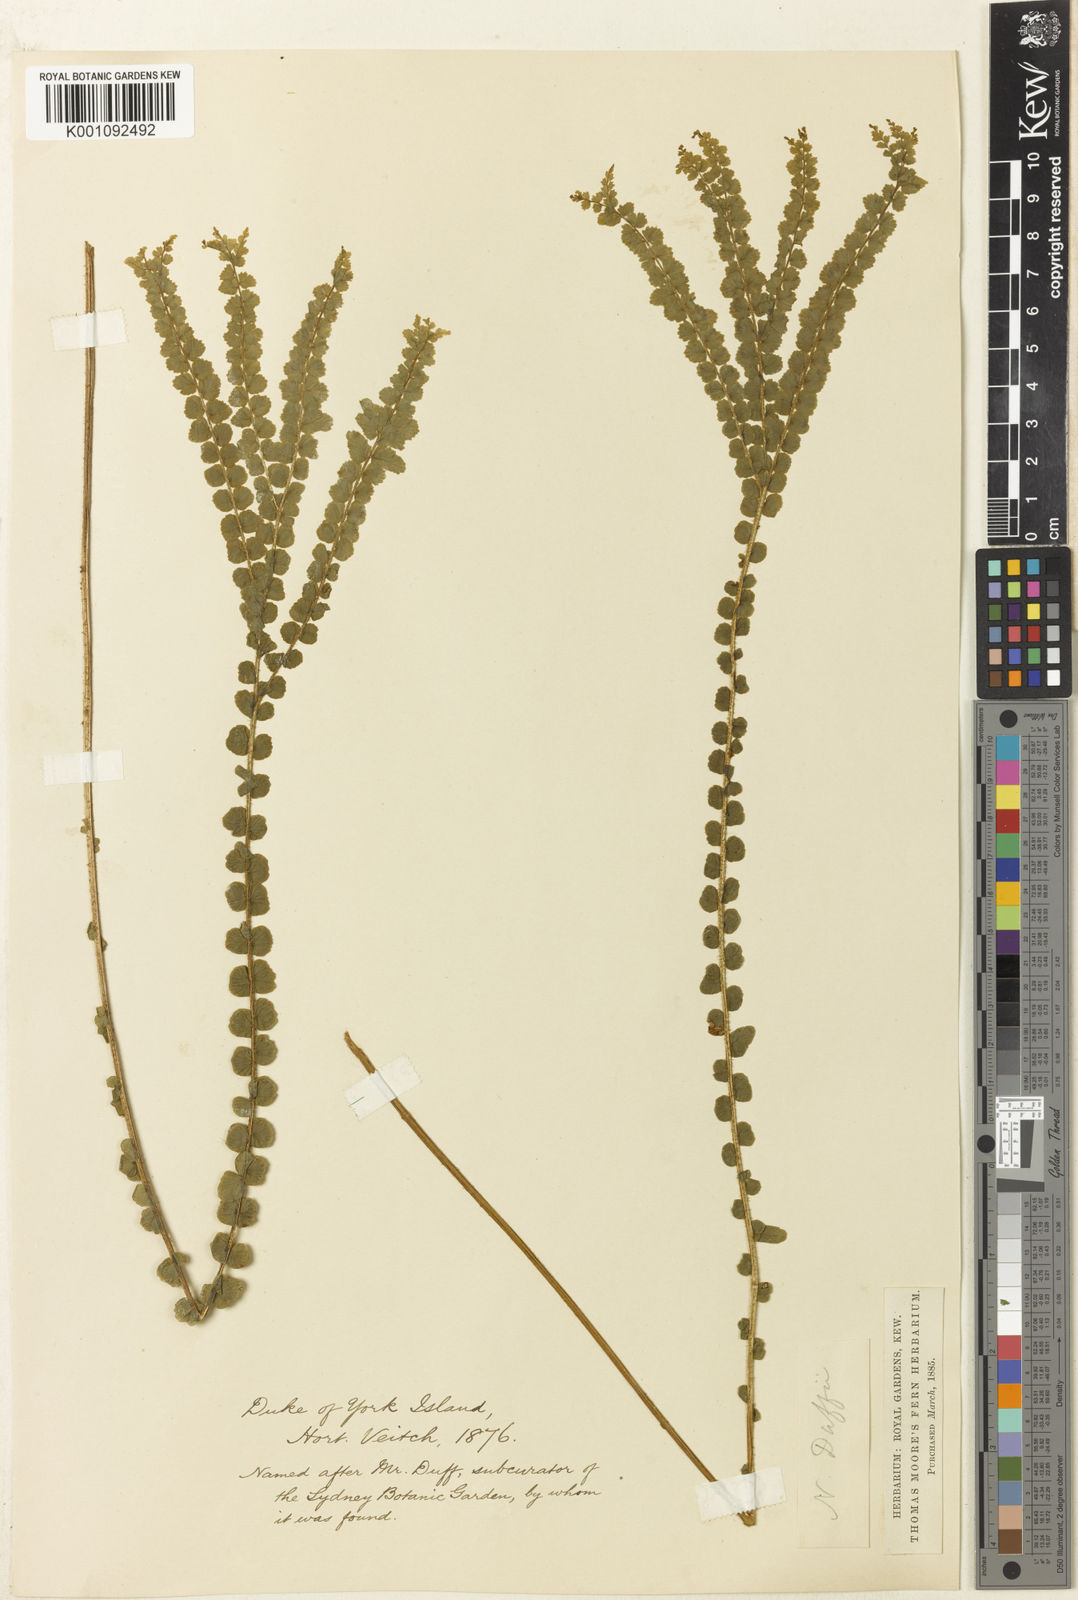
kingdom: Plantae
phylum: Tracheophyta
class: Polypodiopsida
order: Polypodiales
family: Nephrolepidaceae
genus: Nephrolepis
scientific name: Nephrolepis hirsutula
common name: Asian sword fern
